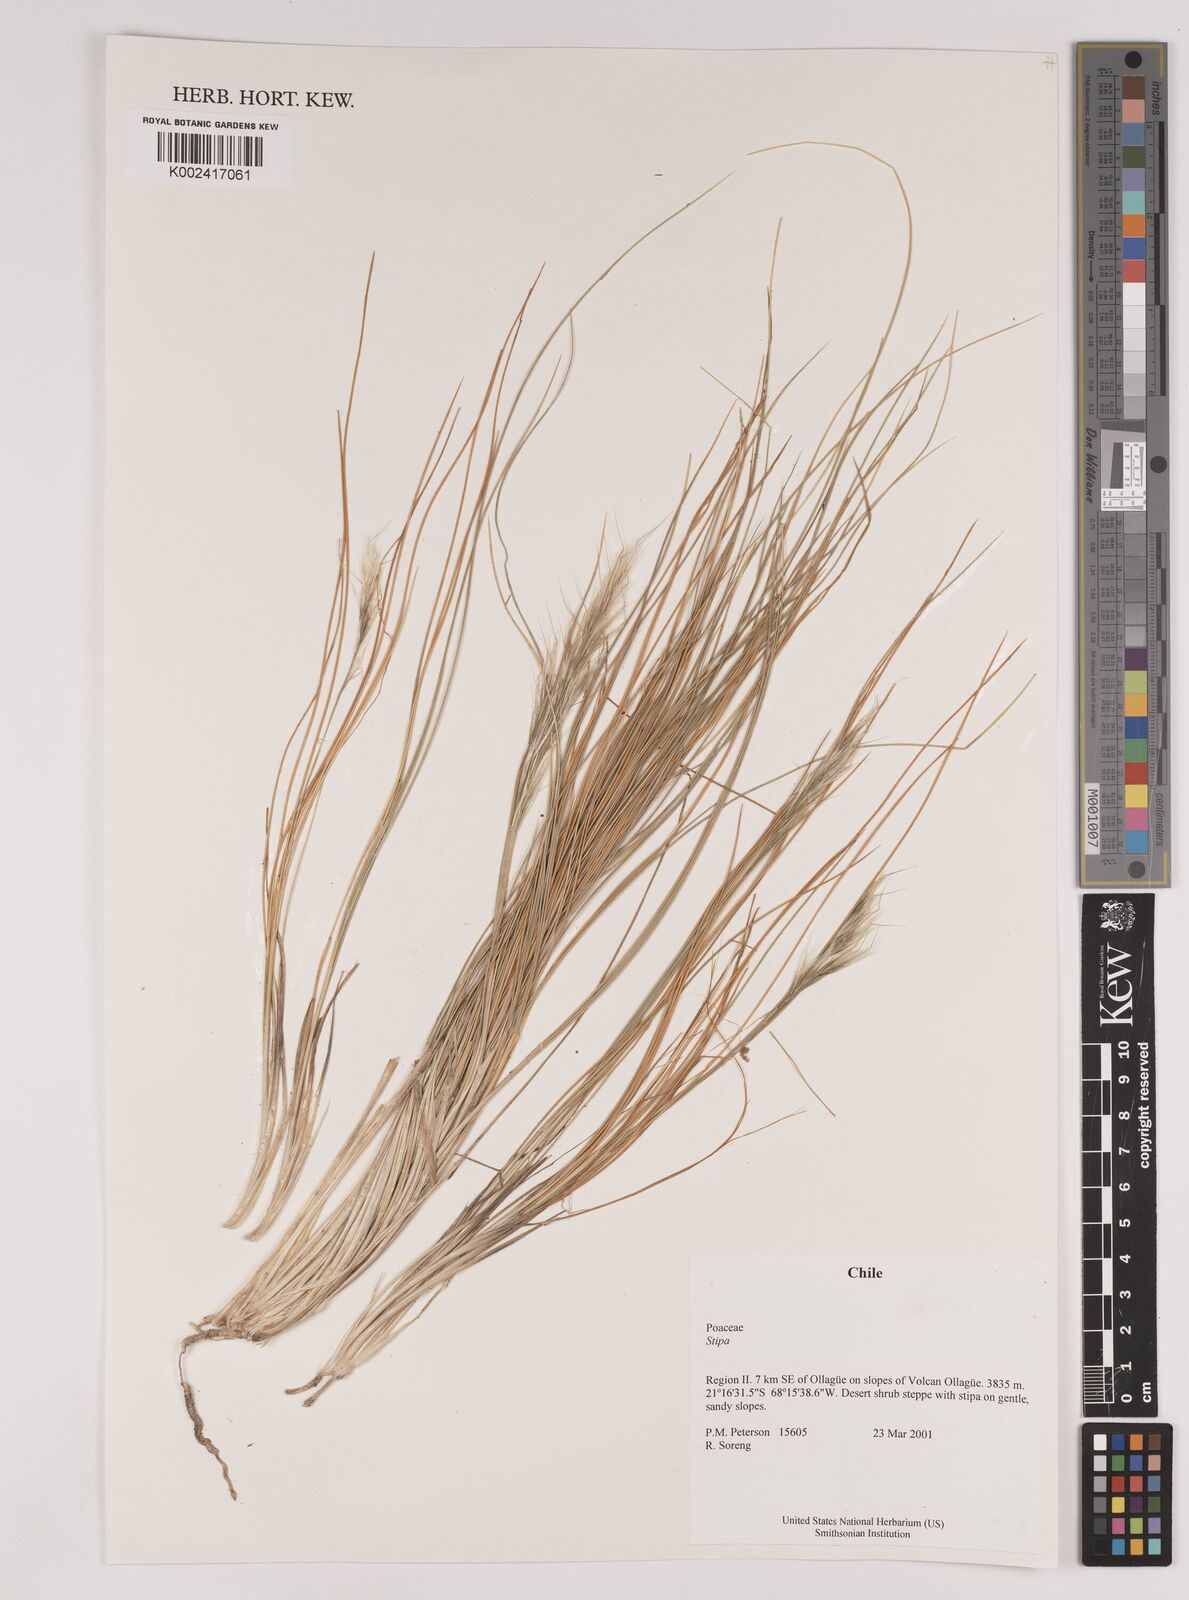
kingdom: Plantae
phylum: Tracheophyta
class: Liliopsida
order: Poales
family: Poaceae
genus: Pappostipa
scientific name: Pappostipa atacamensis
